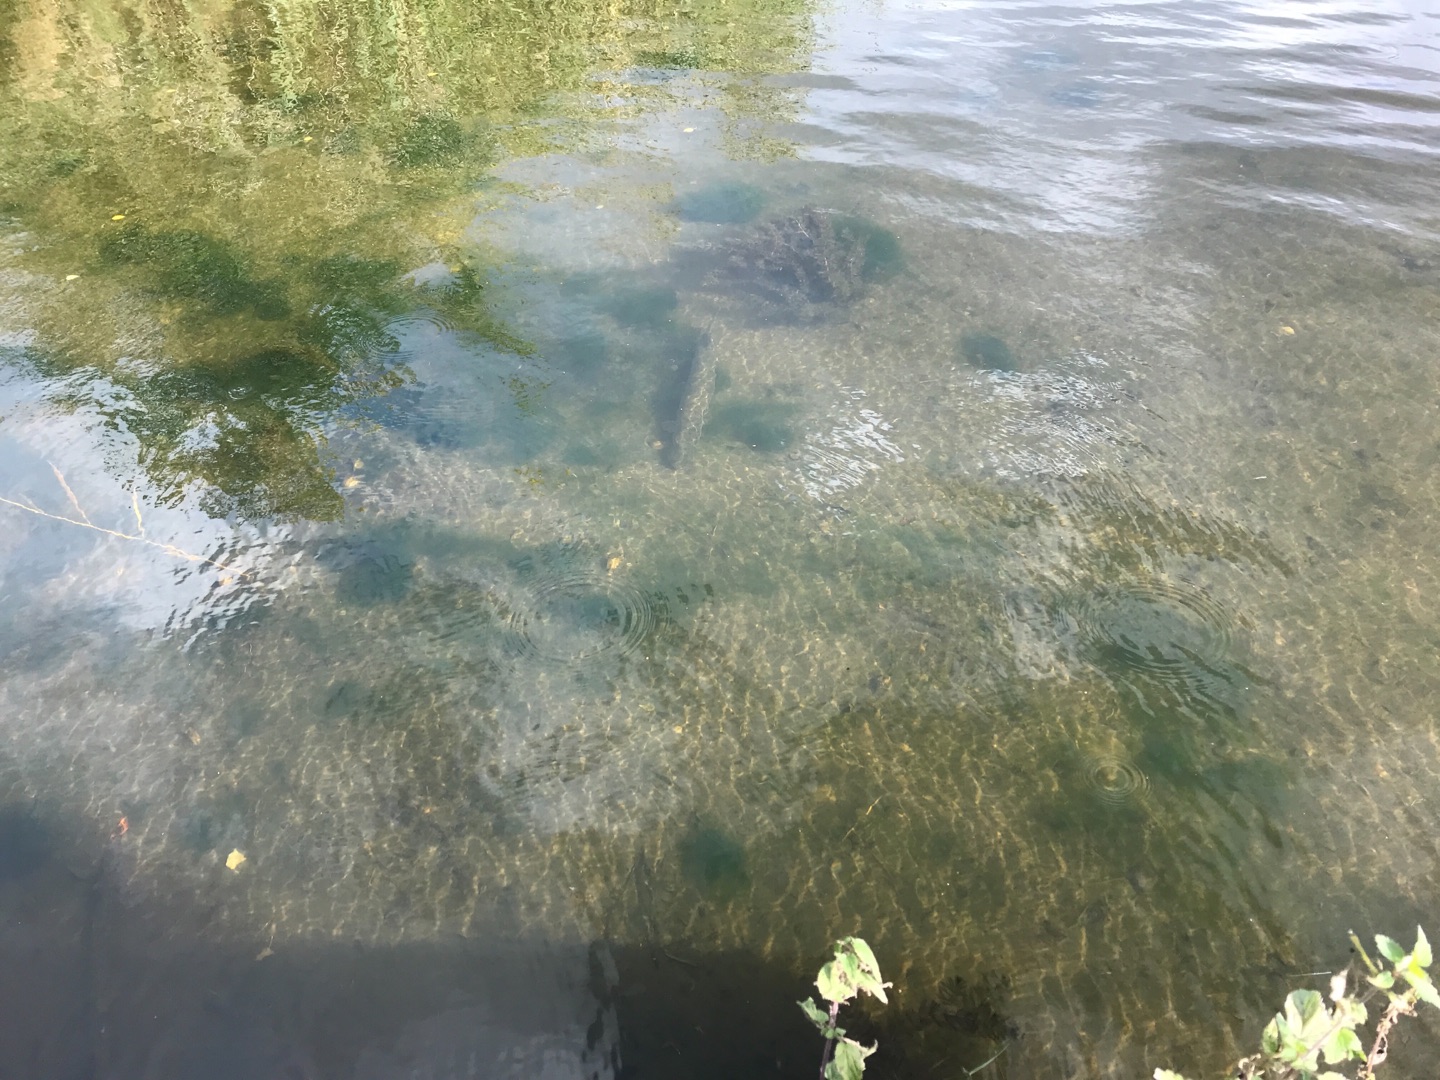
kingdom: Animalia
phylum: Chordata
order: Esociformes
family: Esocidae
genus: Esox
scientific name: Esox lucius
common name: Gedde
